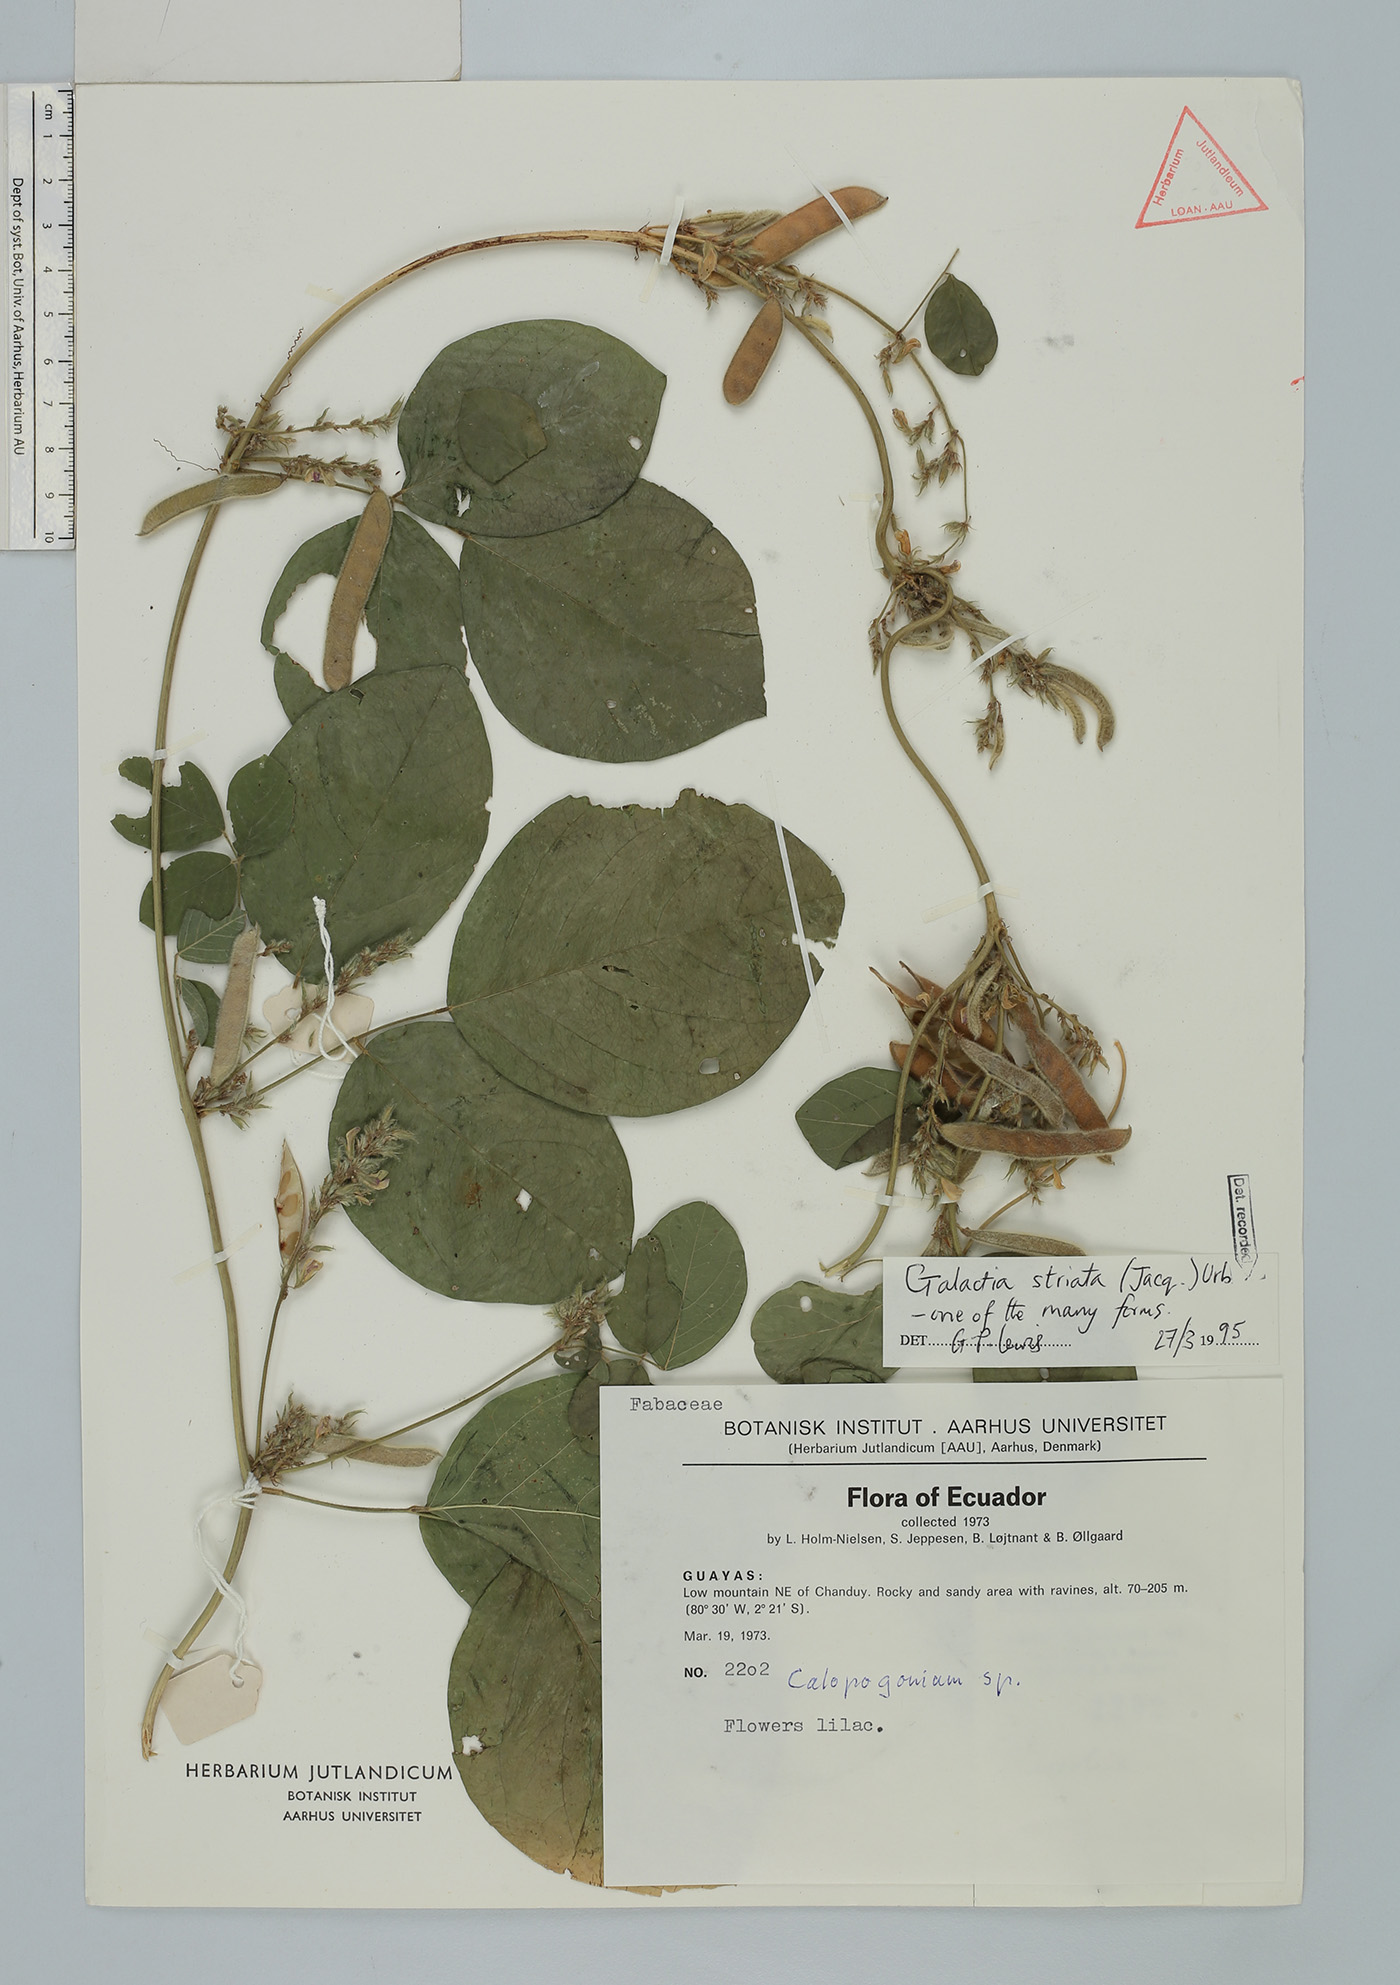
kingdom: Plantae
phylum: Tracheophyta
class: Magnoliopsida
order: Fabales
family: Fabaceae
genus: Galactia
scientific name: Galactia striata
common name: Florida hammock milkpea
